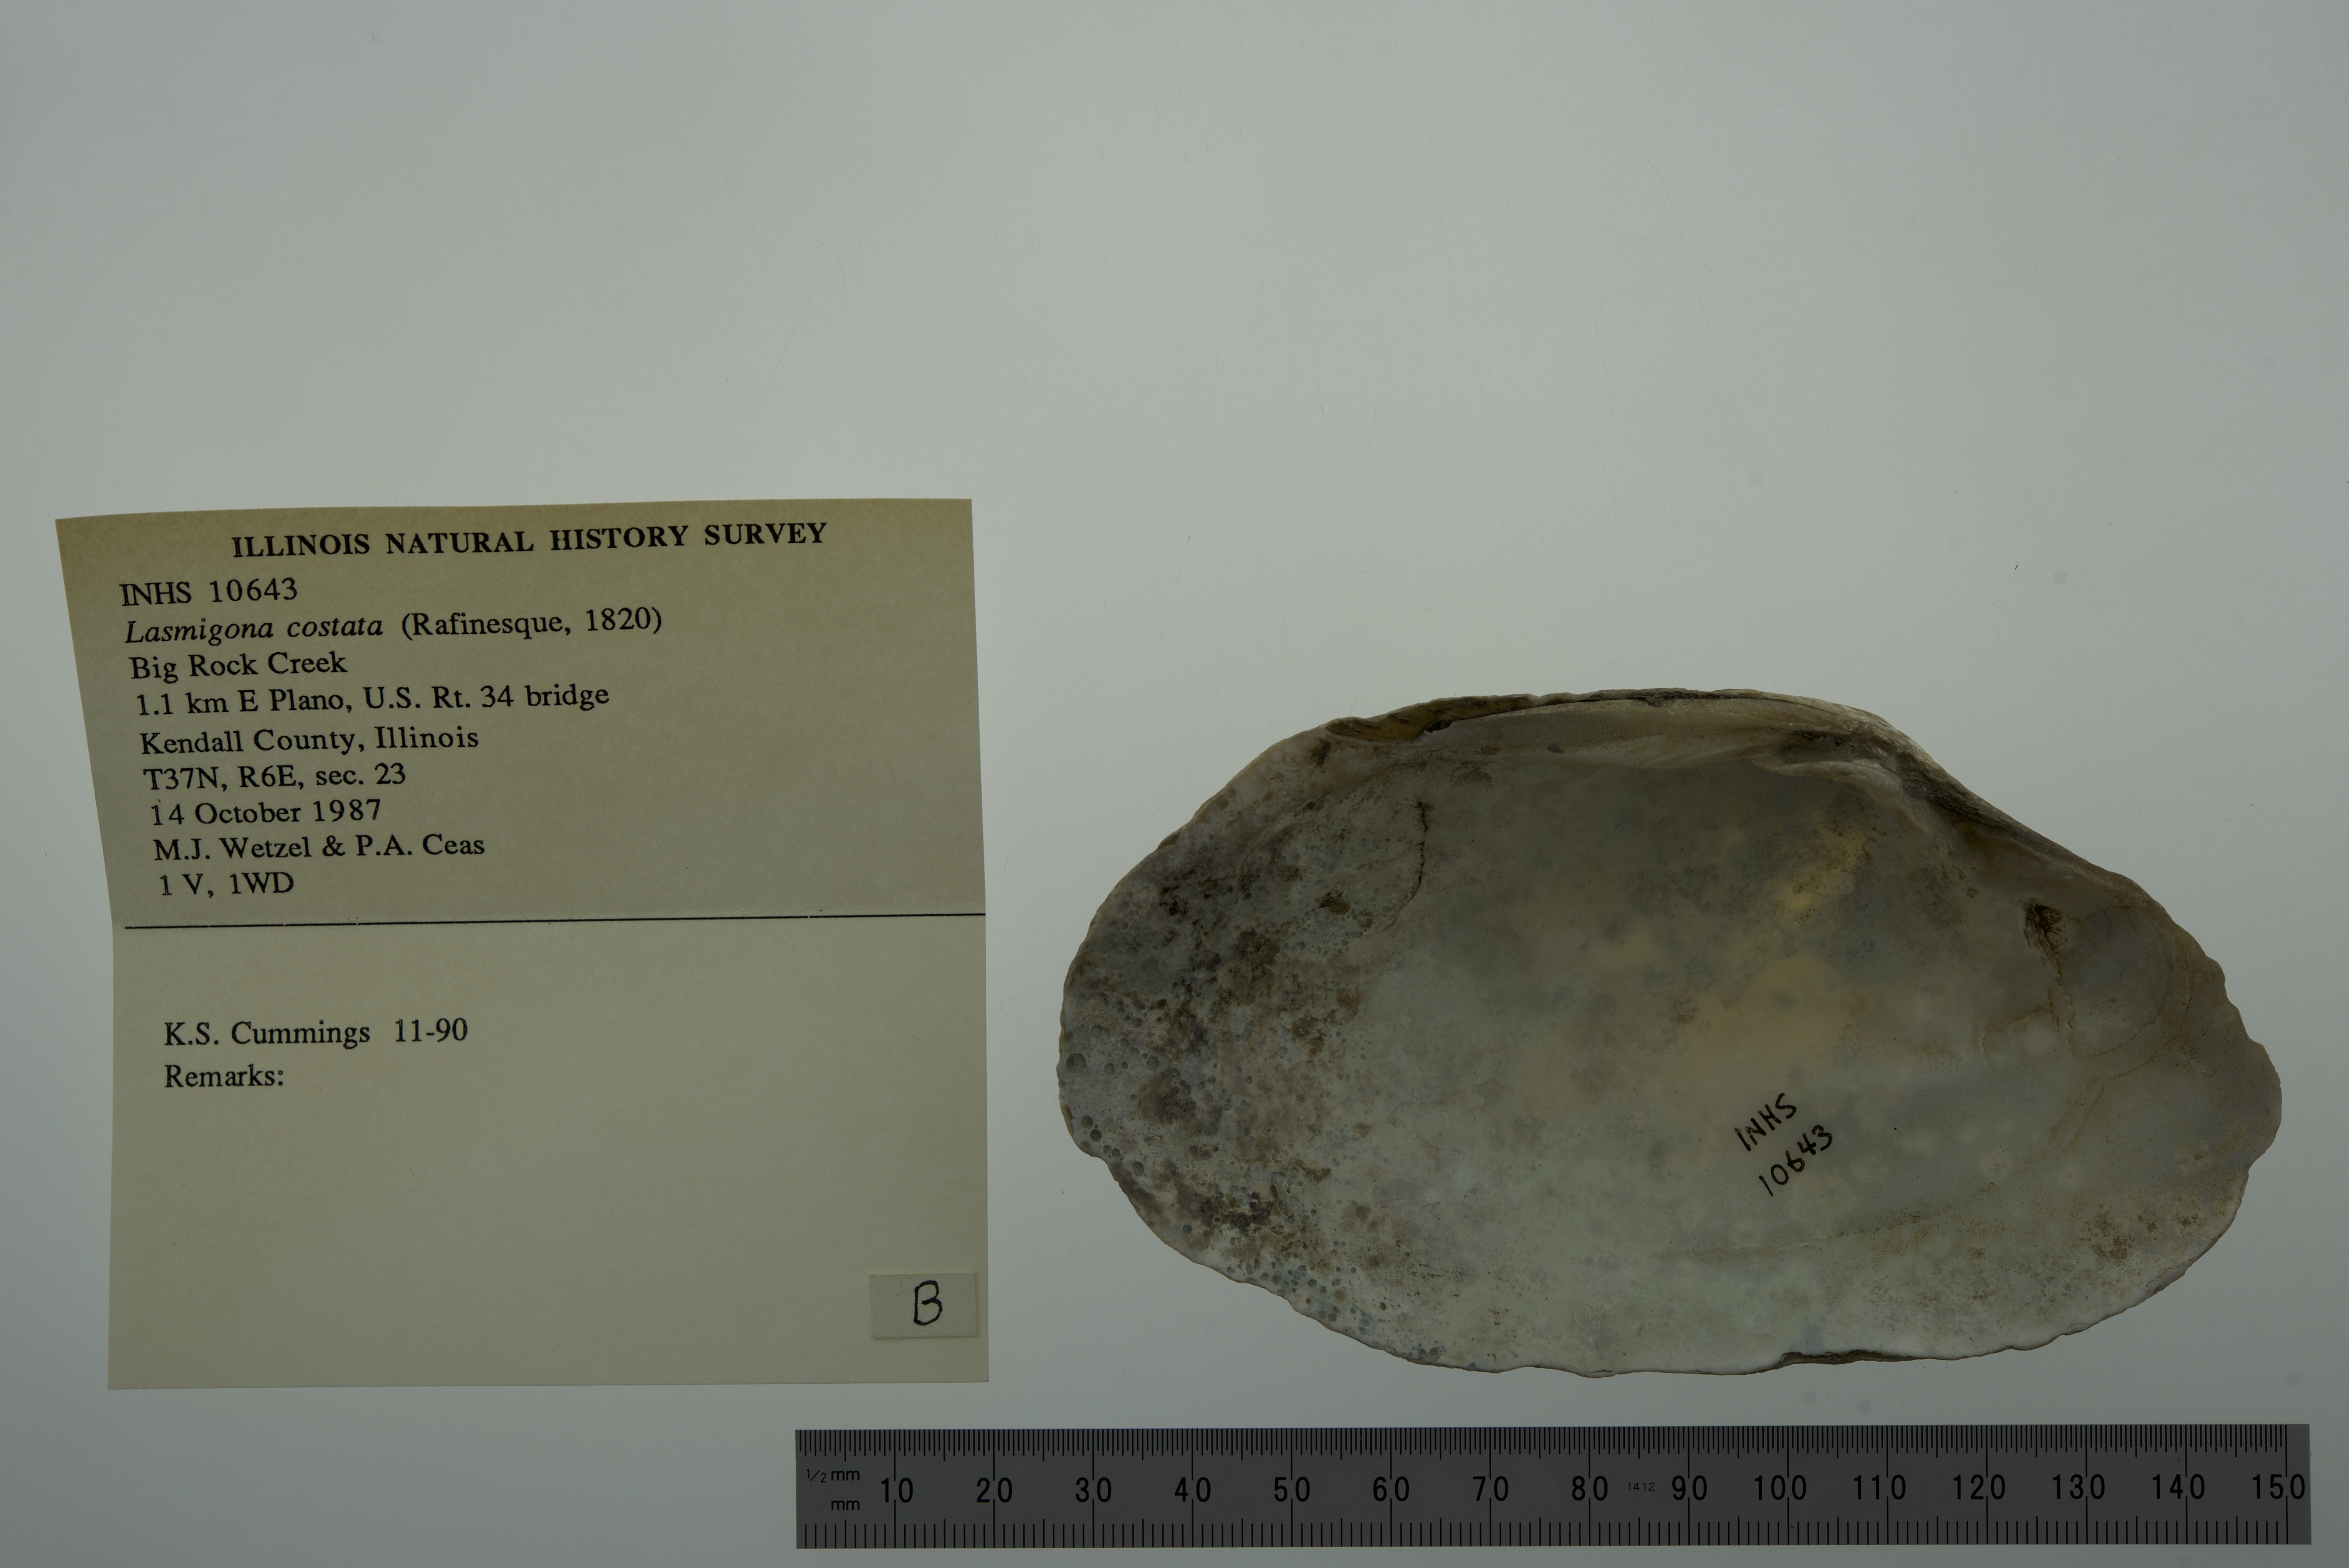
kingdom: Animalia
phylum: Mollusca
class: Bivalvia
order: Unionida
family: Unionidae
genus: Lasmigona
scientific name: Lasmigona costata
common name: Flutedshell
